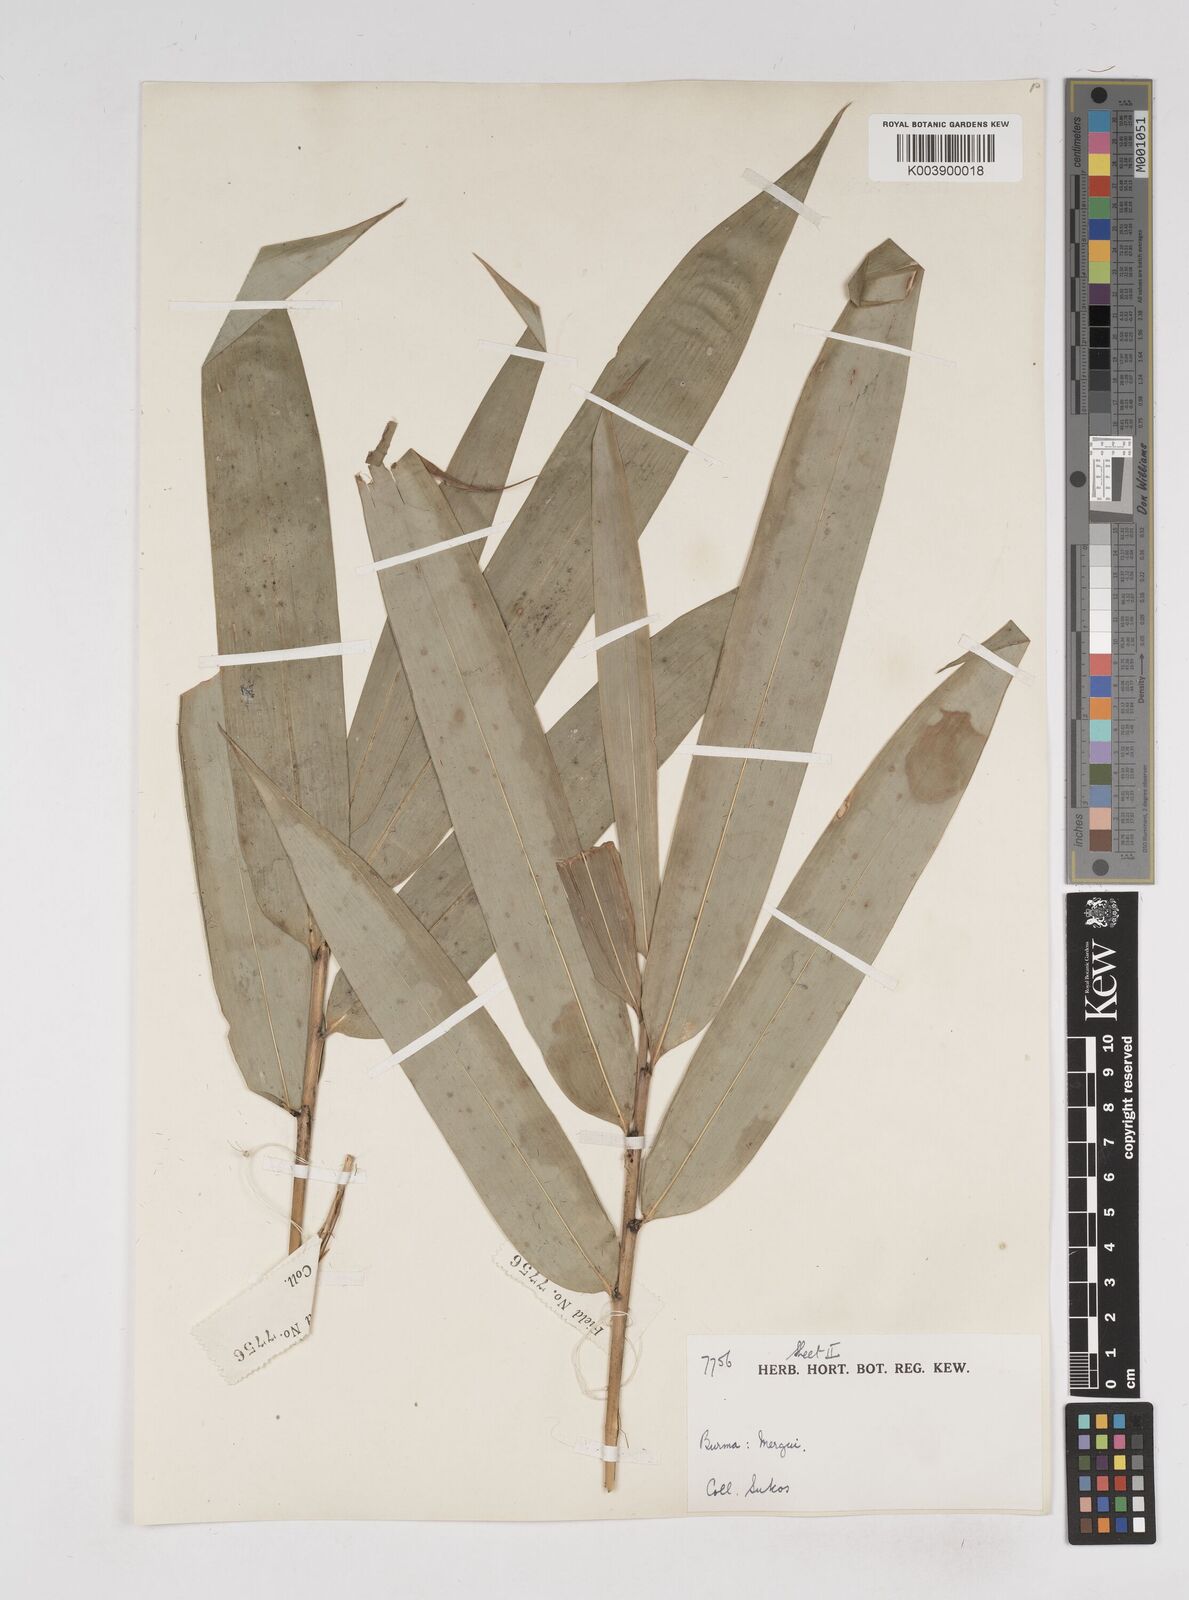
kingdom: Plantae
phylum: Tracheophyta
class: Liliopsida
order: Poales
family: Poaceae
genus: Gigantochloa
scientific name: Gigantochloa
